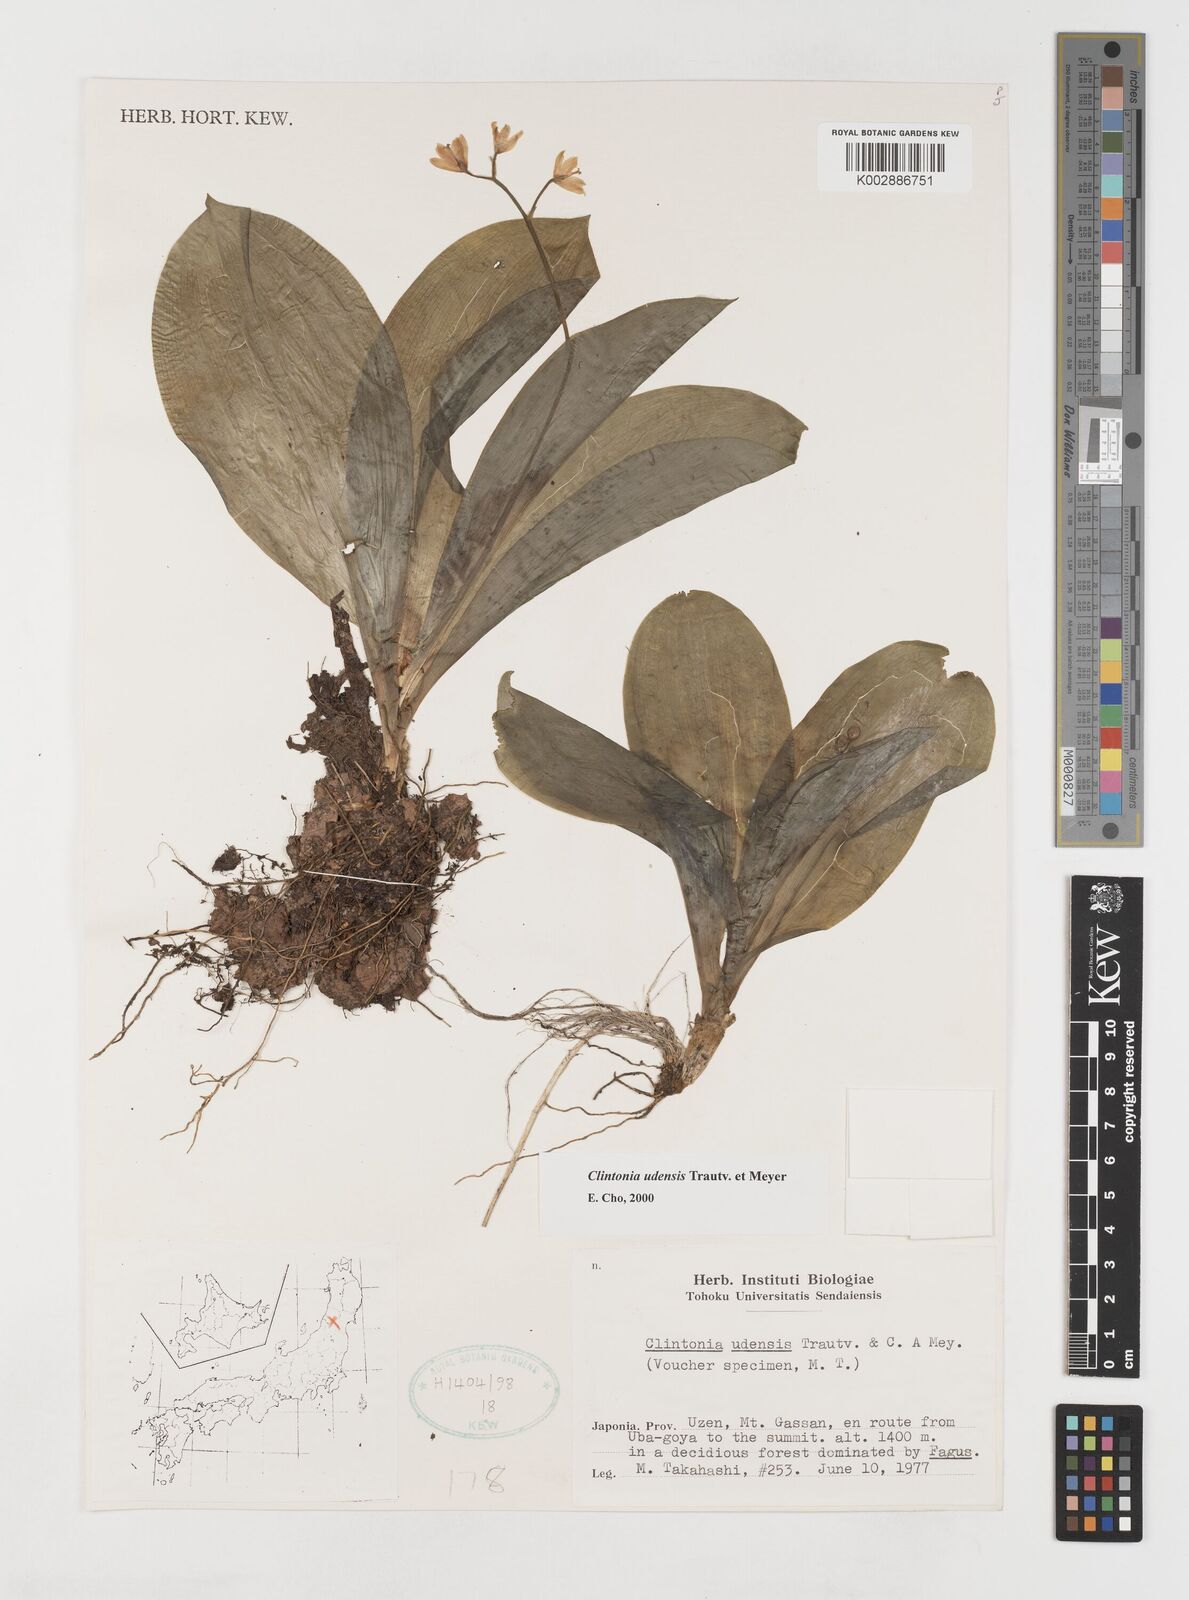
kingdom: Plantae
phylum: Tracheophyta
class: Liliopsida
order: Liliales
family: Liliaceae
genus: Clintonia
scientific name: Clintonia udensis
